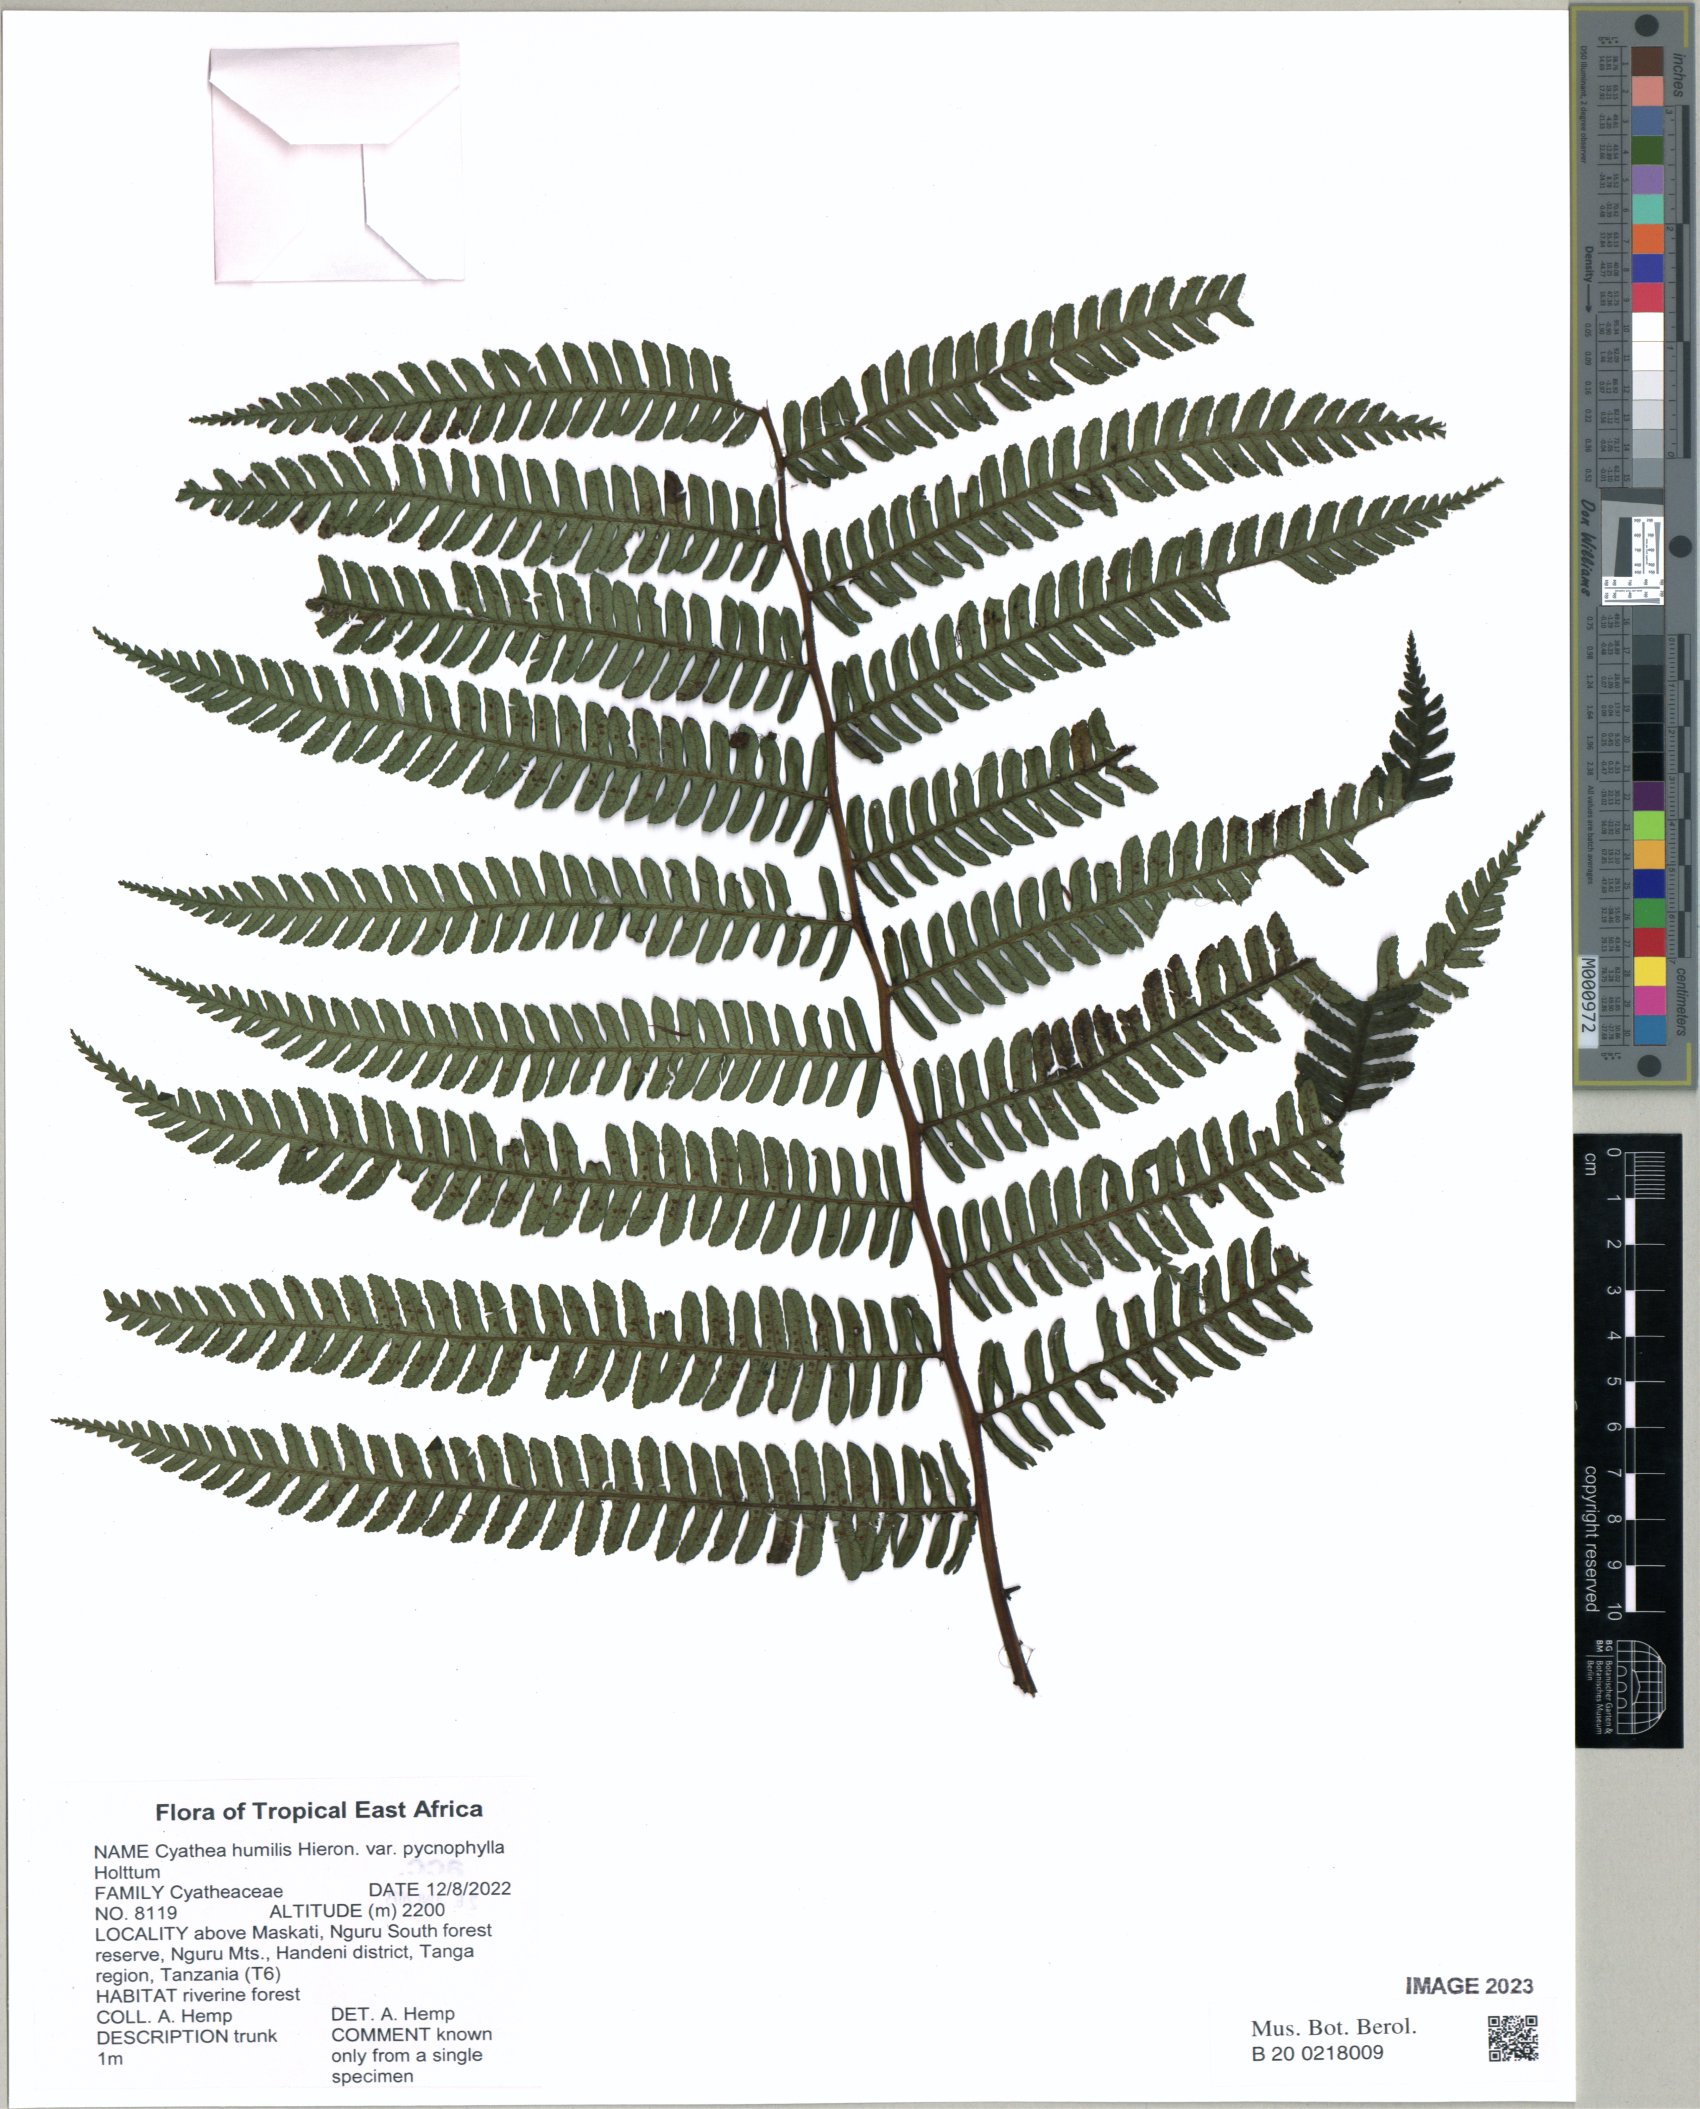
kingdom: Plantae
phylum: Tracheophyta
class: Polypodiopsida
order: Cyatheales
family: Cyatheaceae
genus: Alsophila
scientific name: Alsophila humilis
